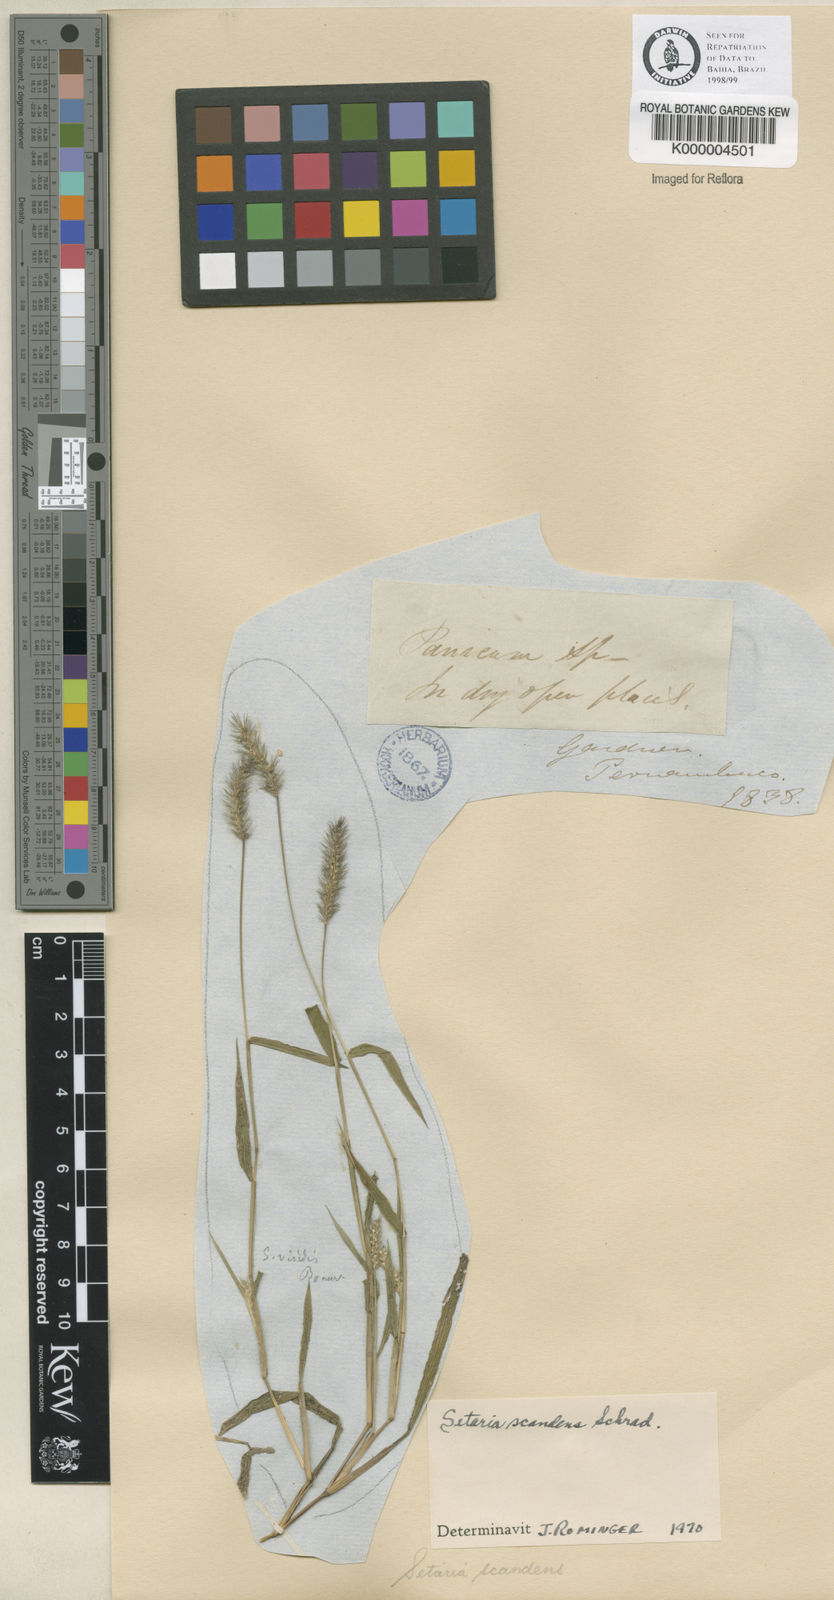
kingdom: Plantae
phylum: Tracheophyta
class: Liliopsida
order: Poales
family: Poaceae
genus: Setaria
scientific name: Setaria scandens
